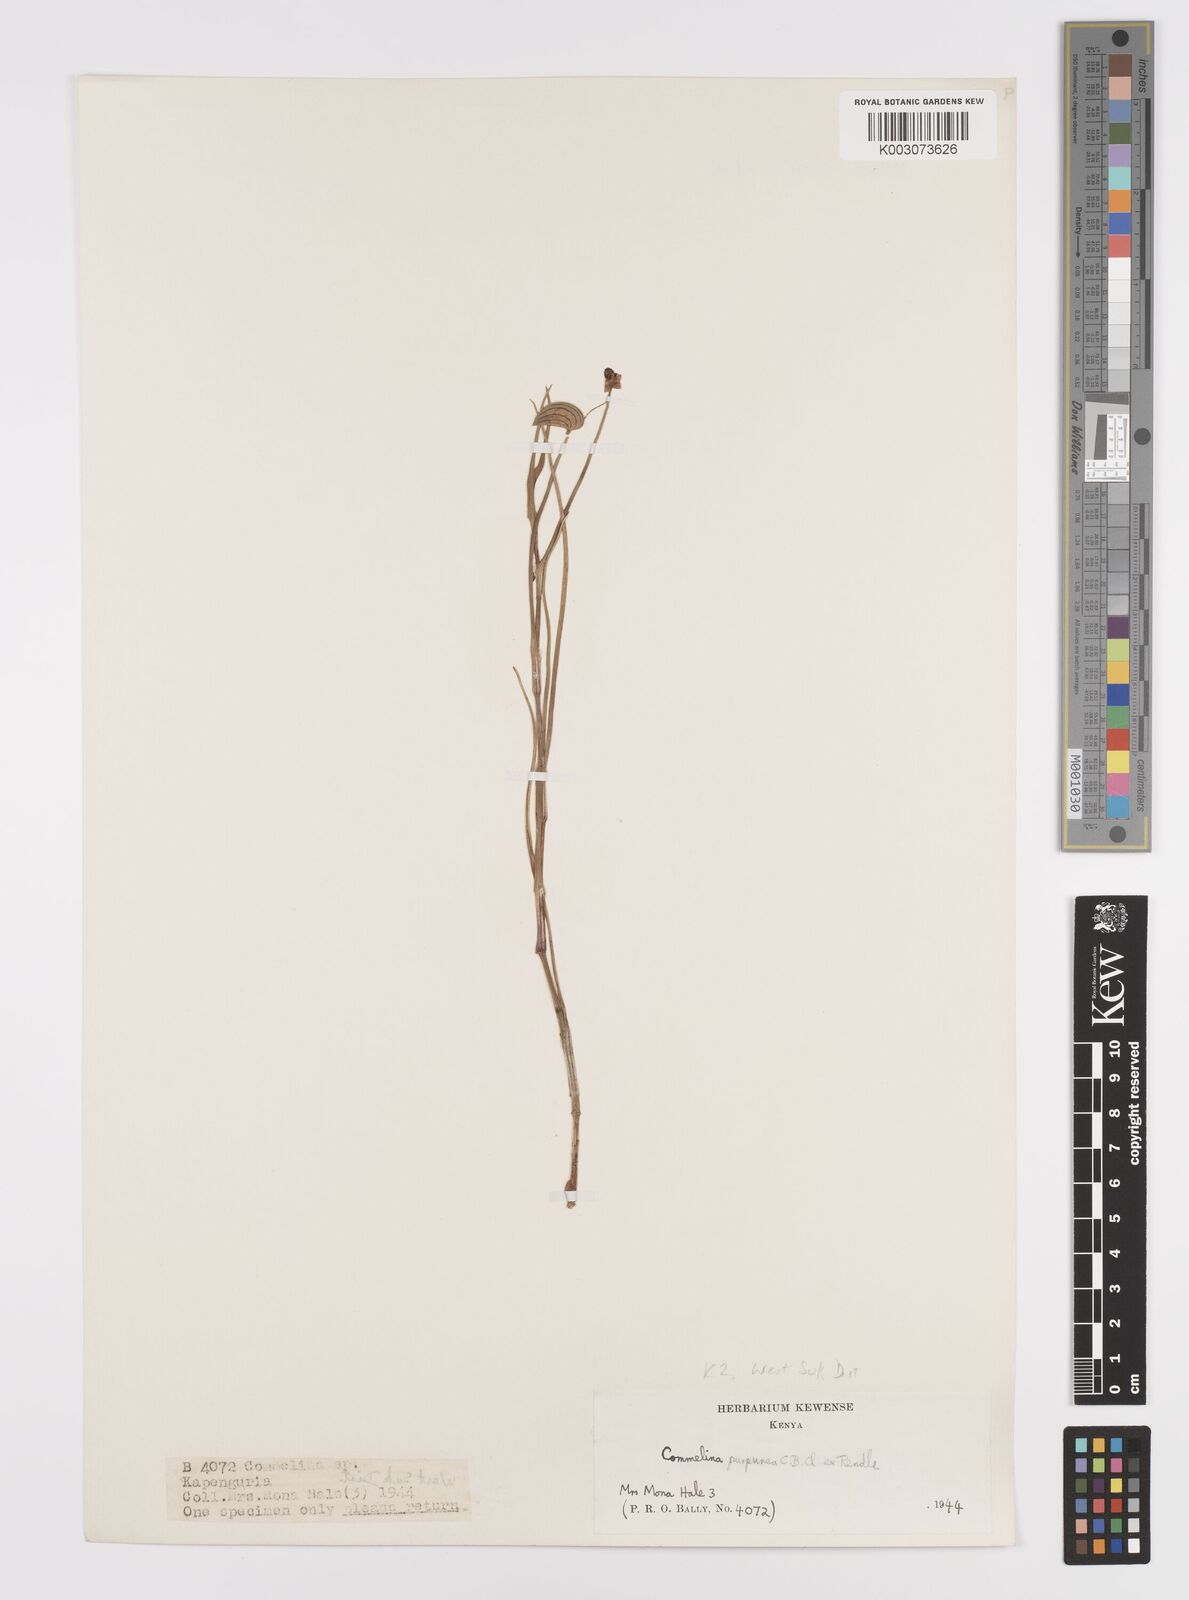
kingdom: Plantae
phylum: Tracheophyta
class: Liliopsida
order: Commelinales
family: Commelinaceae
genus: Commelina
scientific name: Commelina purpurea
